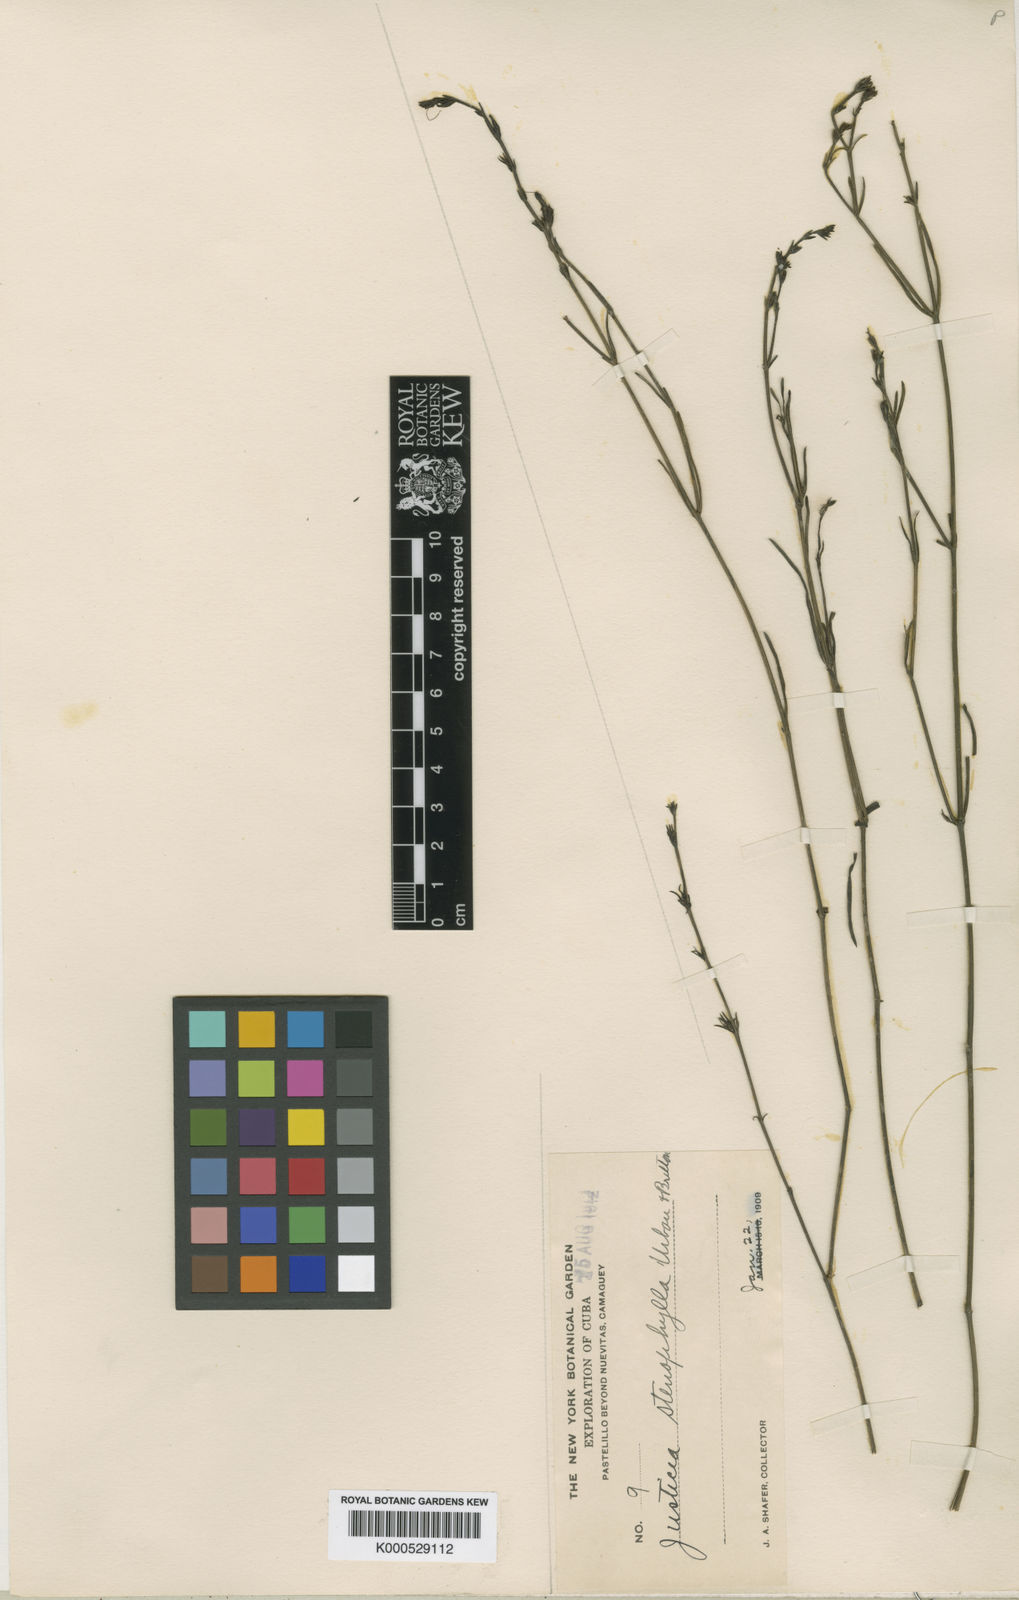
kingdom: Plantae
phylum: Tracheophyta
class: Magnoliopsida
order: Lamiales
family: Acanthaceae
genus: Justicia
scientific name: Justicia stenophylla
